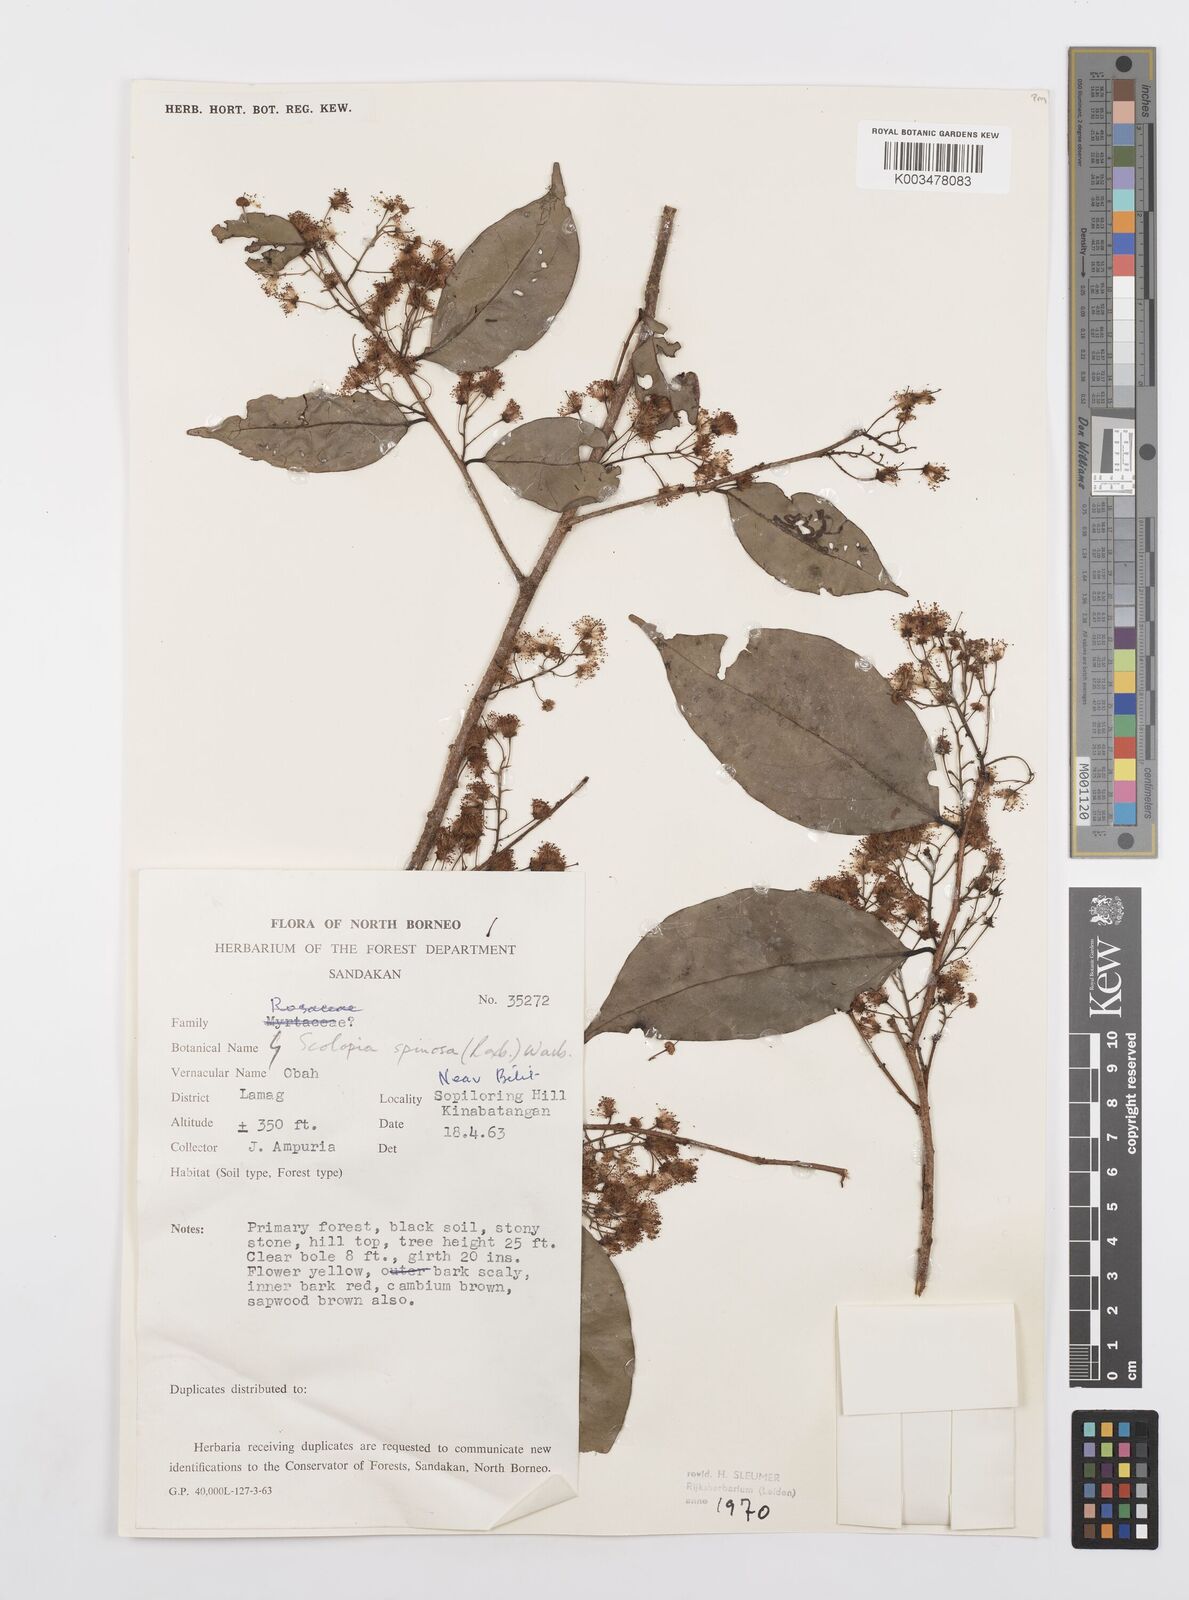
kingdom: Plantae
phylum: Tracheophyta
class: Magnoliopsida
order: Malpighiales
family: Salicaceae
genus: Scolopia
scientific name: Scolopia spinosa
